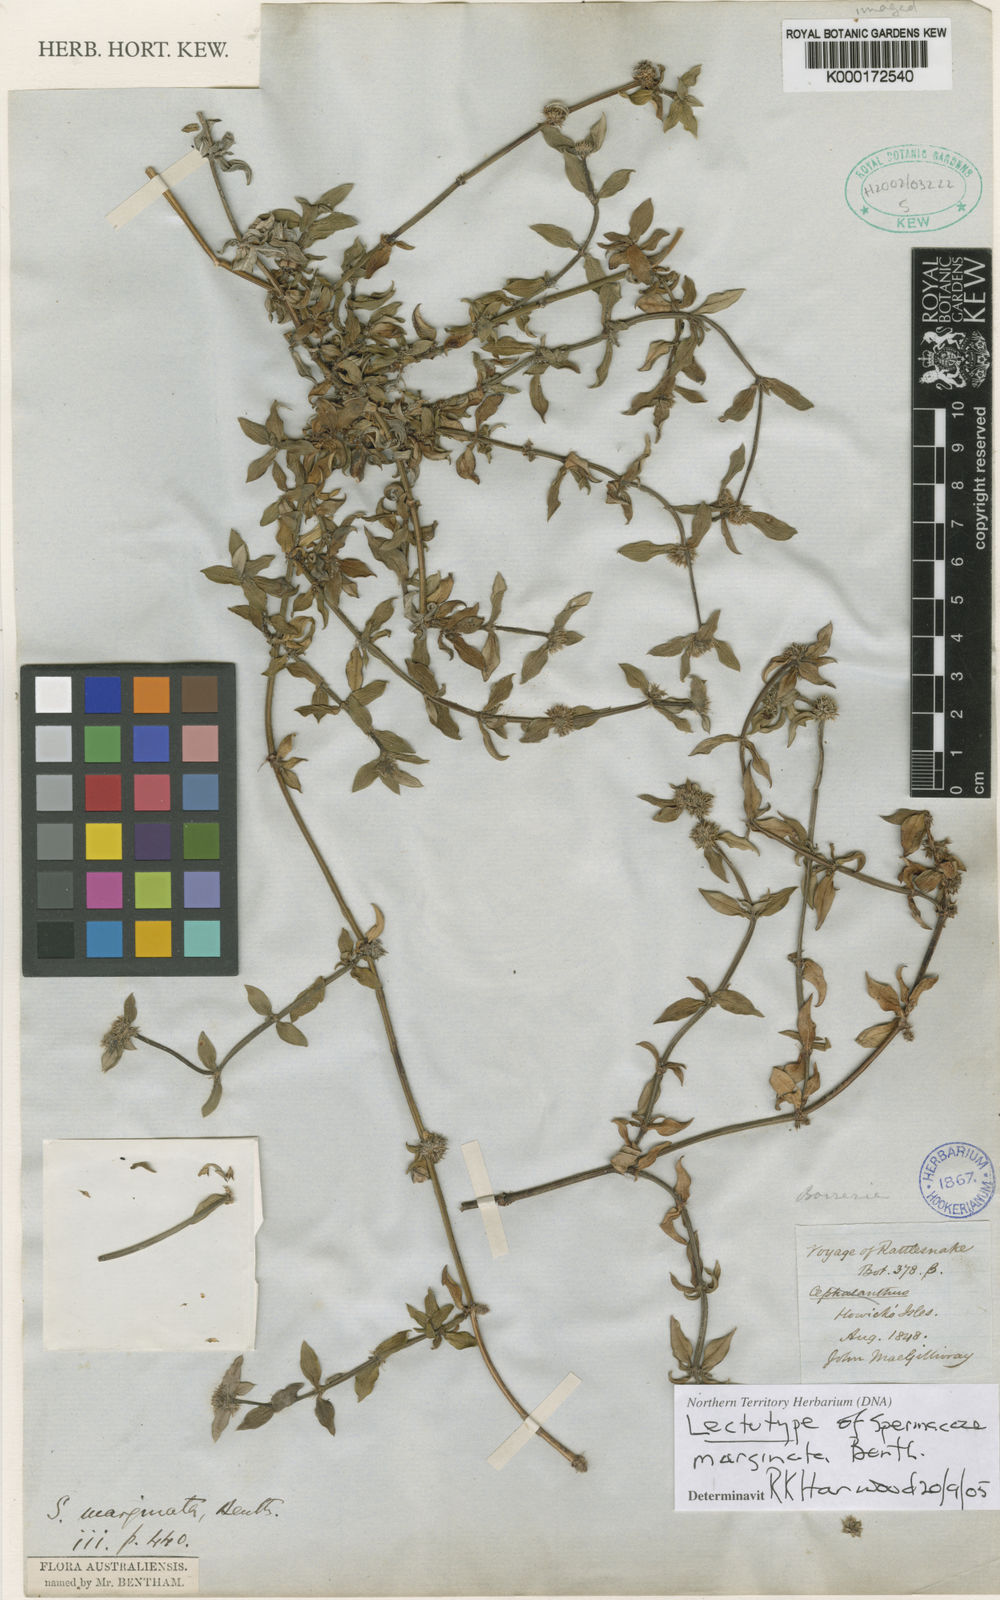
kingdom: Plantae
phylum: Tracheophyta
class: Magnoliopsida
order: Gentianales
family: Rubiaceae
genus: Spermacoce
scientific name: Spermacoce marginata
